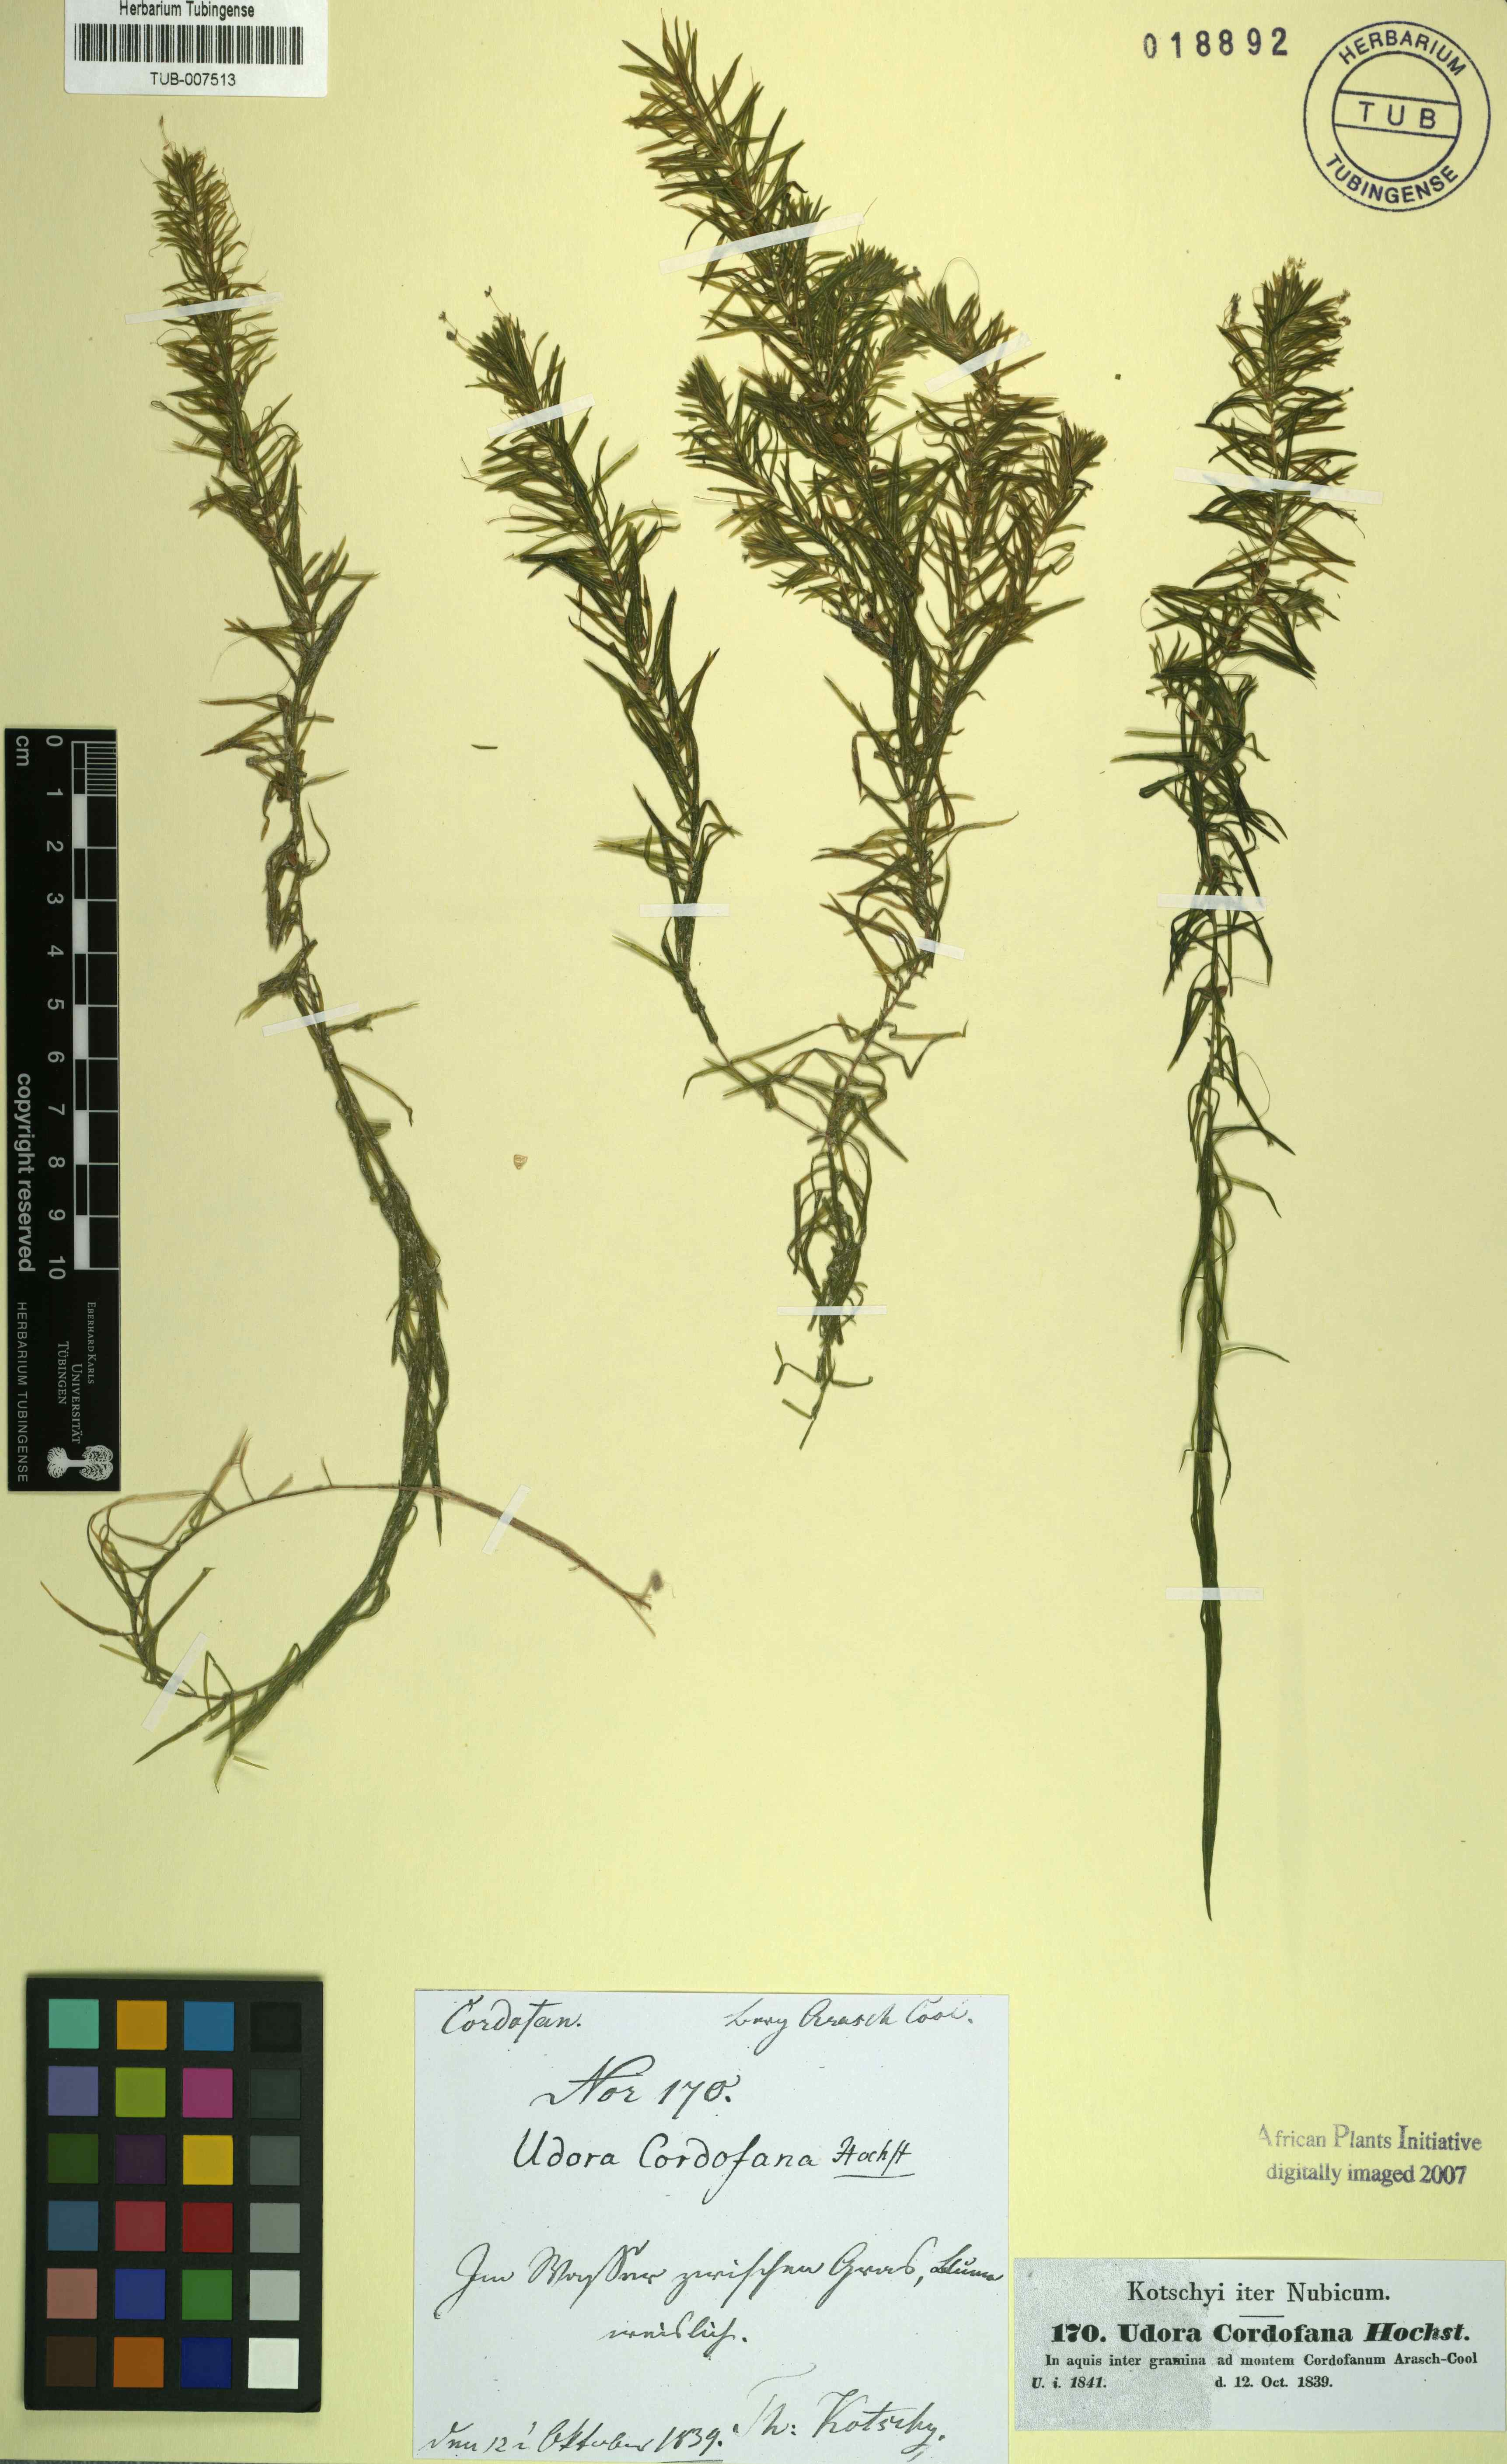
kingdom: Plantae
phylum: Tracheophyta
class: Liliopsida
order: Alismatales
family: Hydrocharitaceae
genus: Lagarosiphon
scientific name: Lagarosiphon cordofanus
